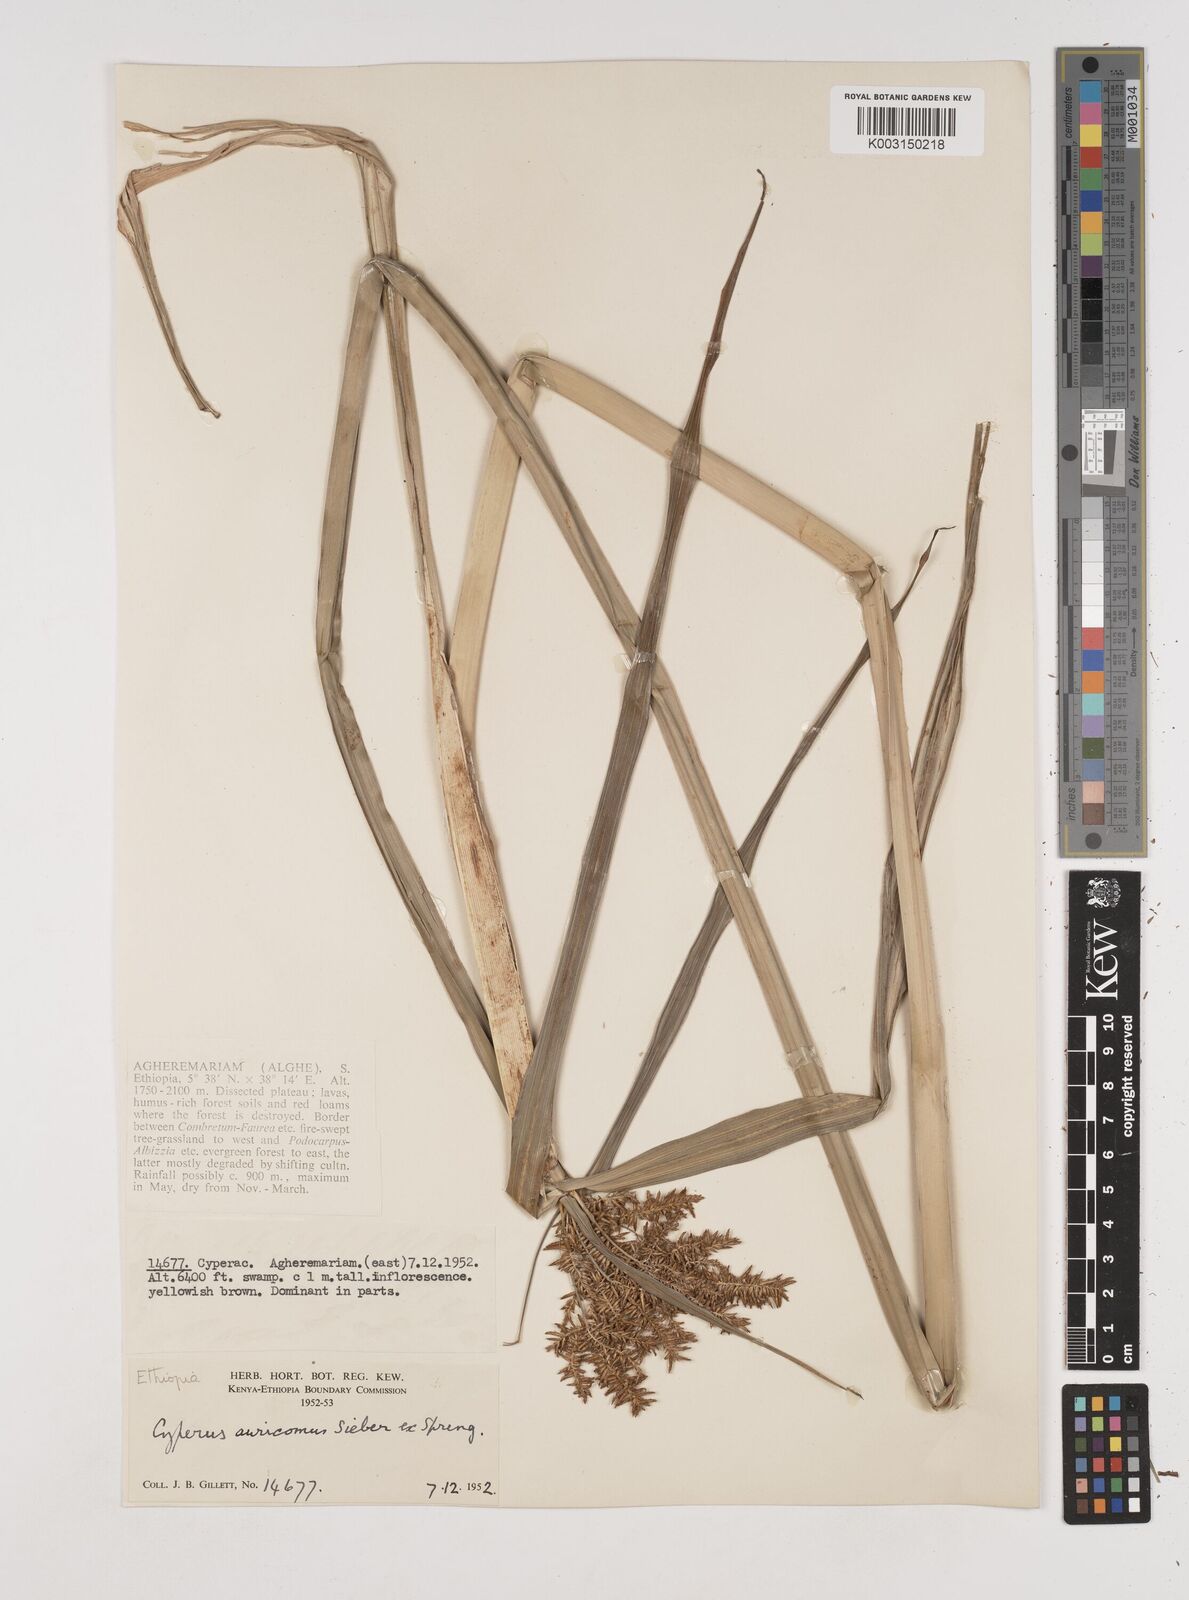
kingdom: Plantae
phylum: Tracheophyta
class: Liliopsida
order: Poales
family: Cyperaceae
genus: Cyperus
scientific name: Cyperus digitatus
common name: Finger flatsedge
